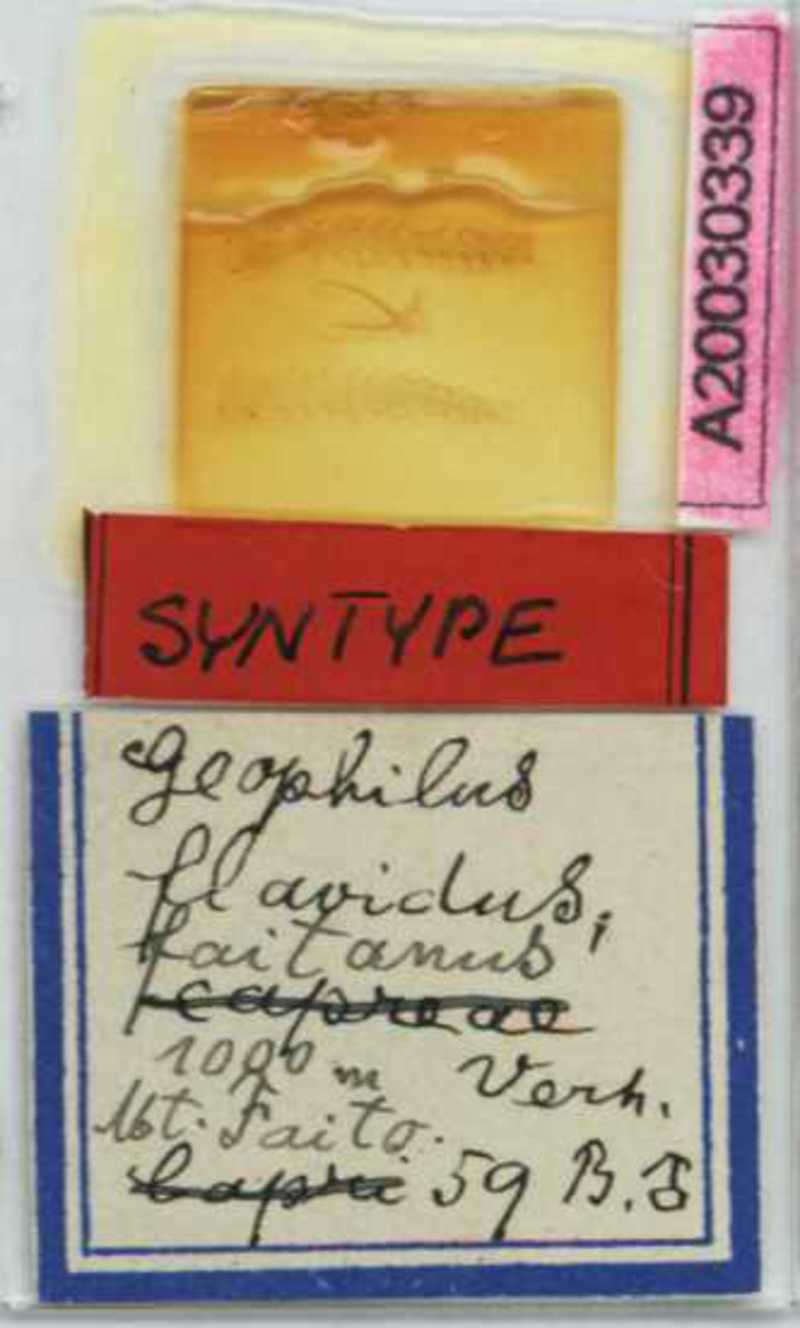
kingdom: Animalia
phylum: Arthropoda
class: Chilopoda
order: Geophilomorpha
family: Geophilidae
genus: Clinopodes
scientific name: Clinopodes flavidus
